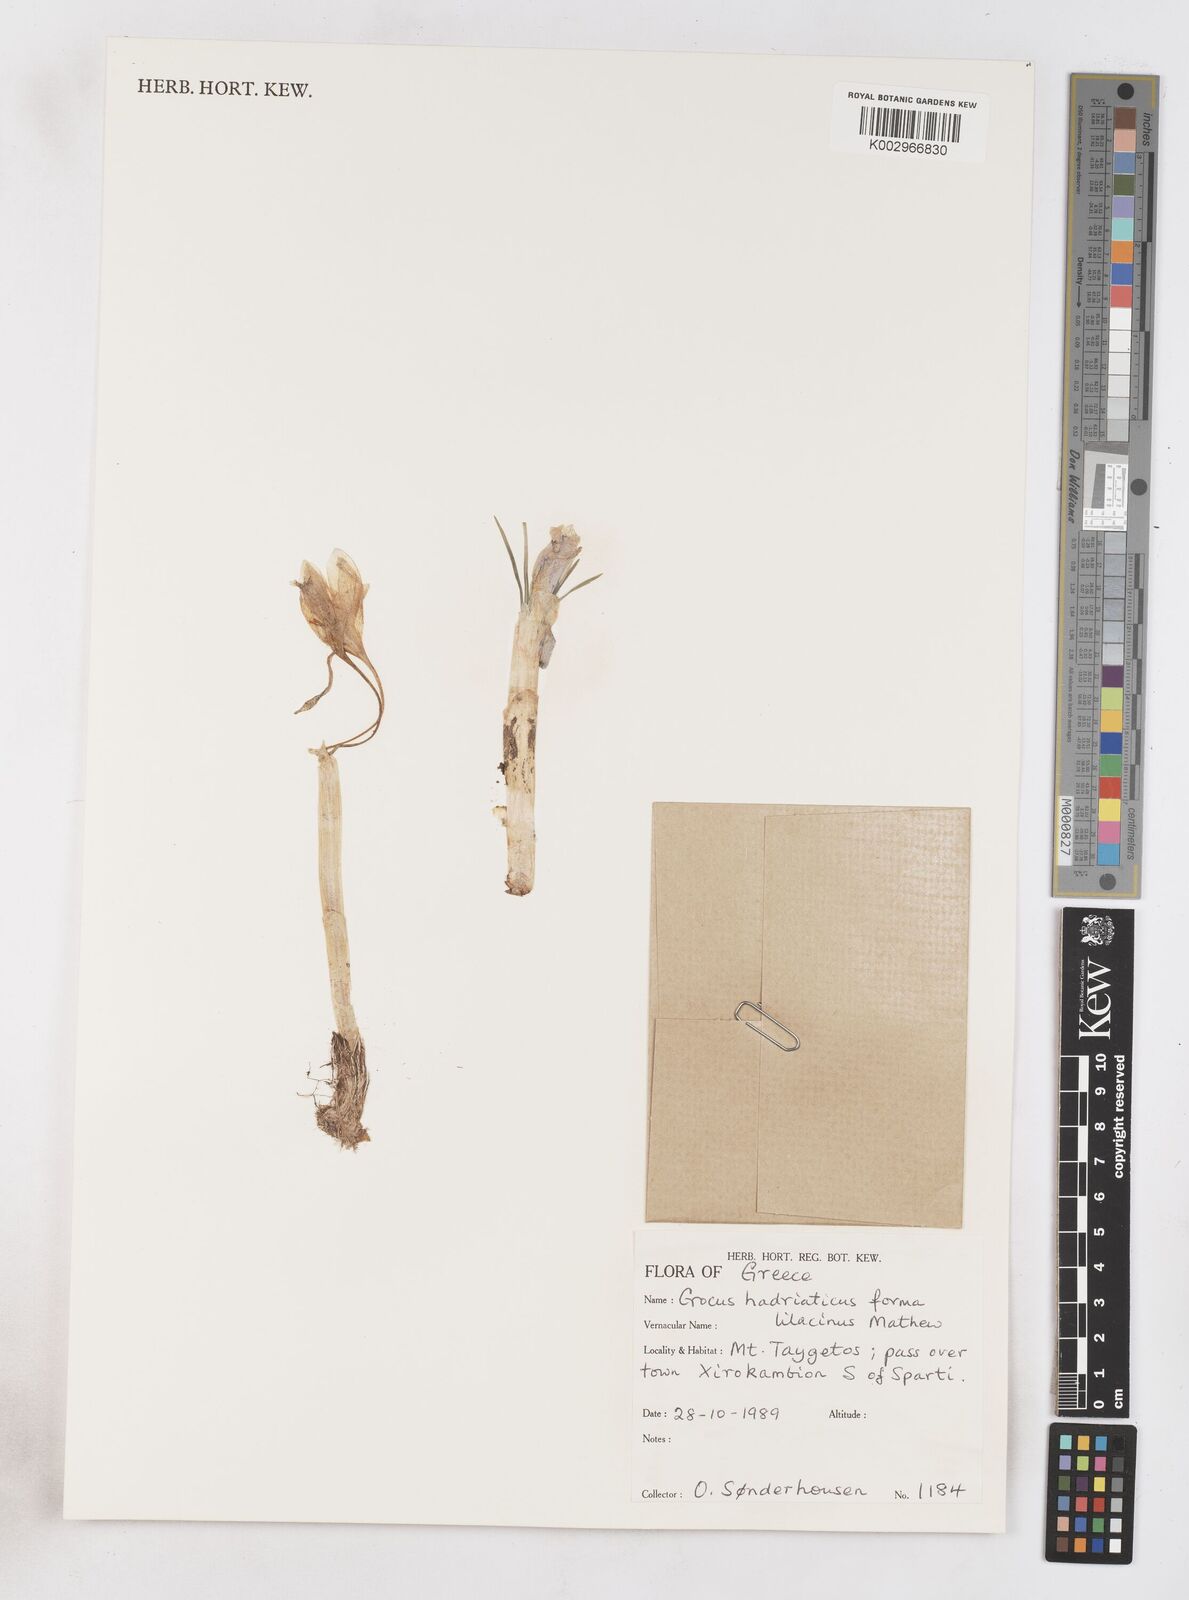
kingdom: Plantae
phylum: Tracheophyta
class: Liliopsida
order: Asparagales
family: Iridaceae
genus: Crocus
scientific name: Crocus hadriaticus
